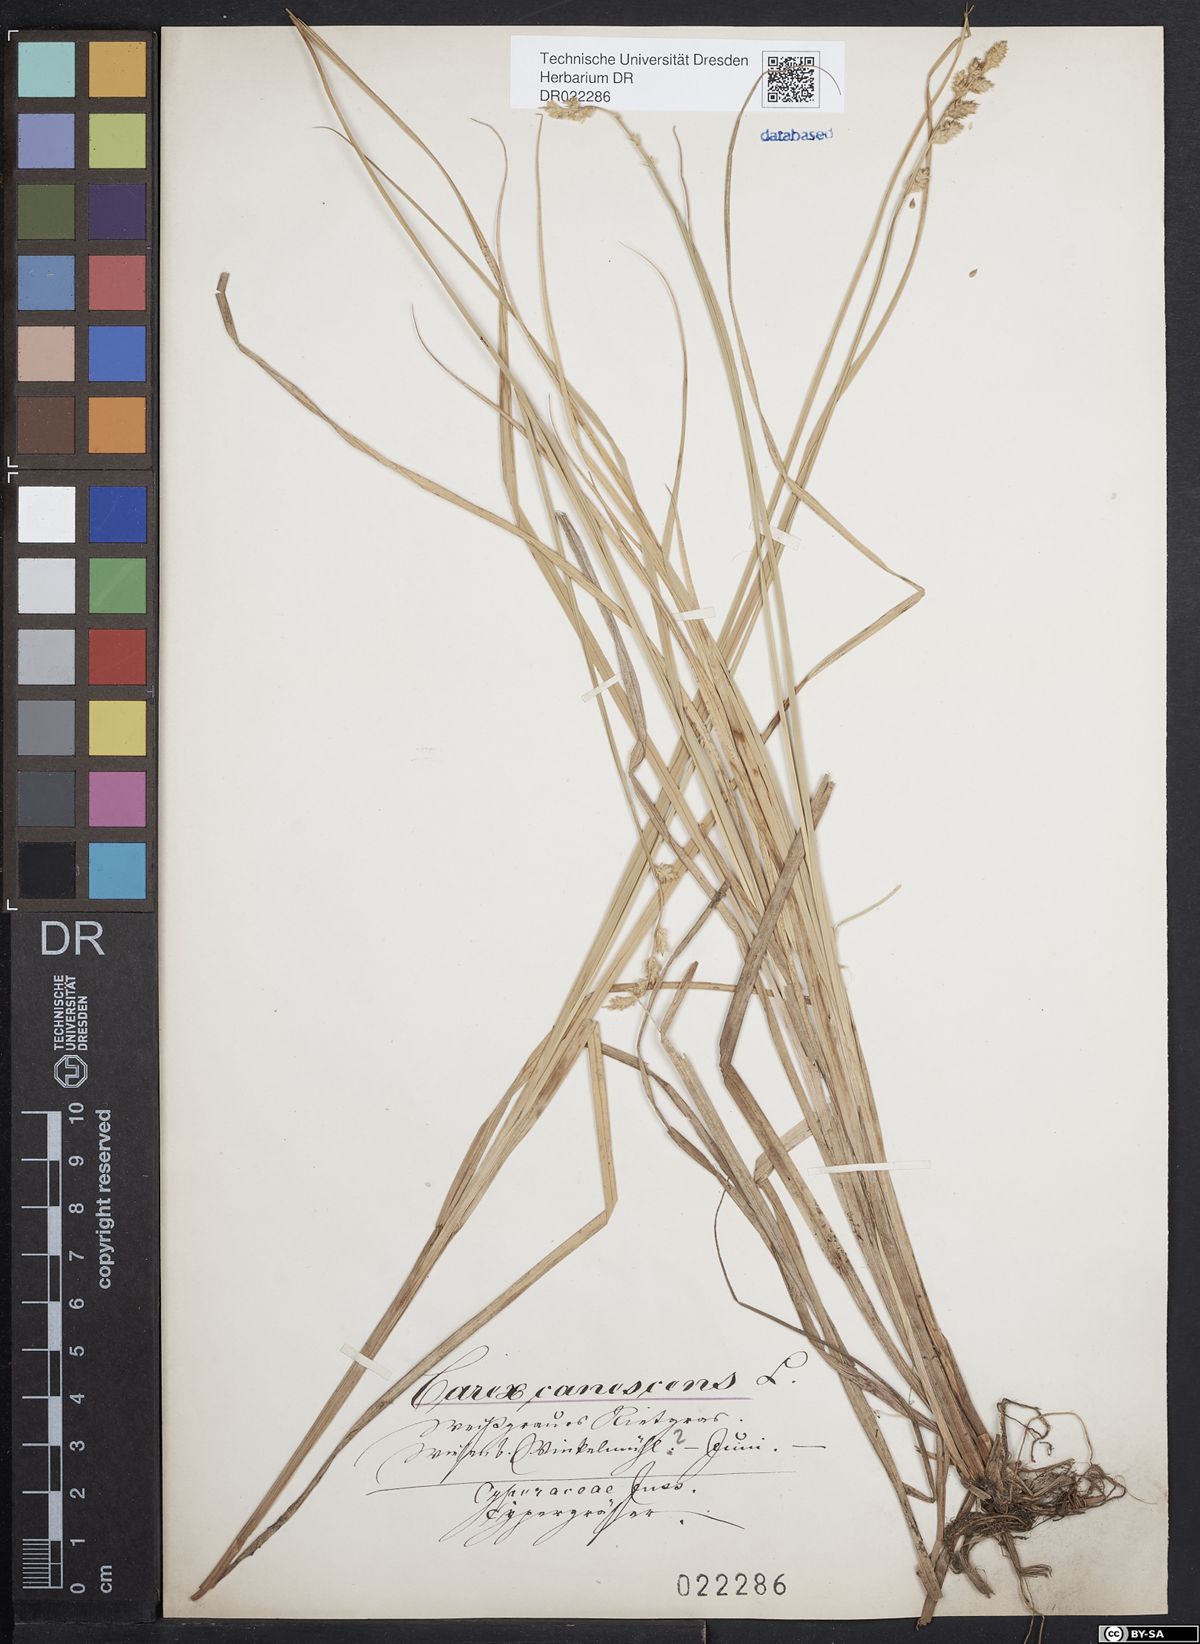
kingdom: Plantae
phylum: Tracheophyta
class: Liliopsida
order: Poales
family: Cyperaceae
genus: Carex
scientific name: Carex canescens
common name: White sedge
